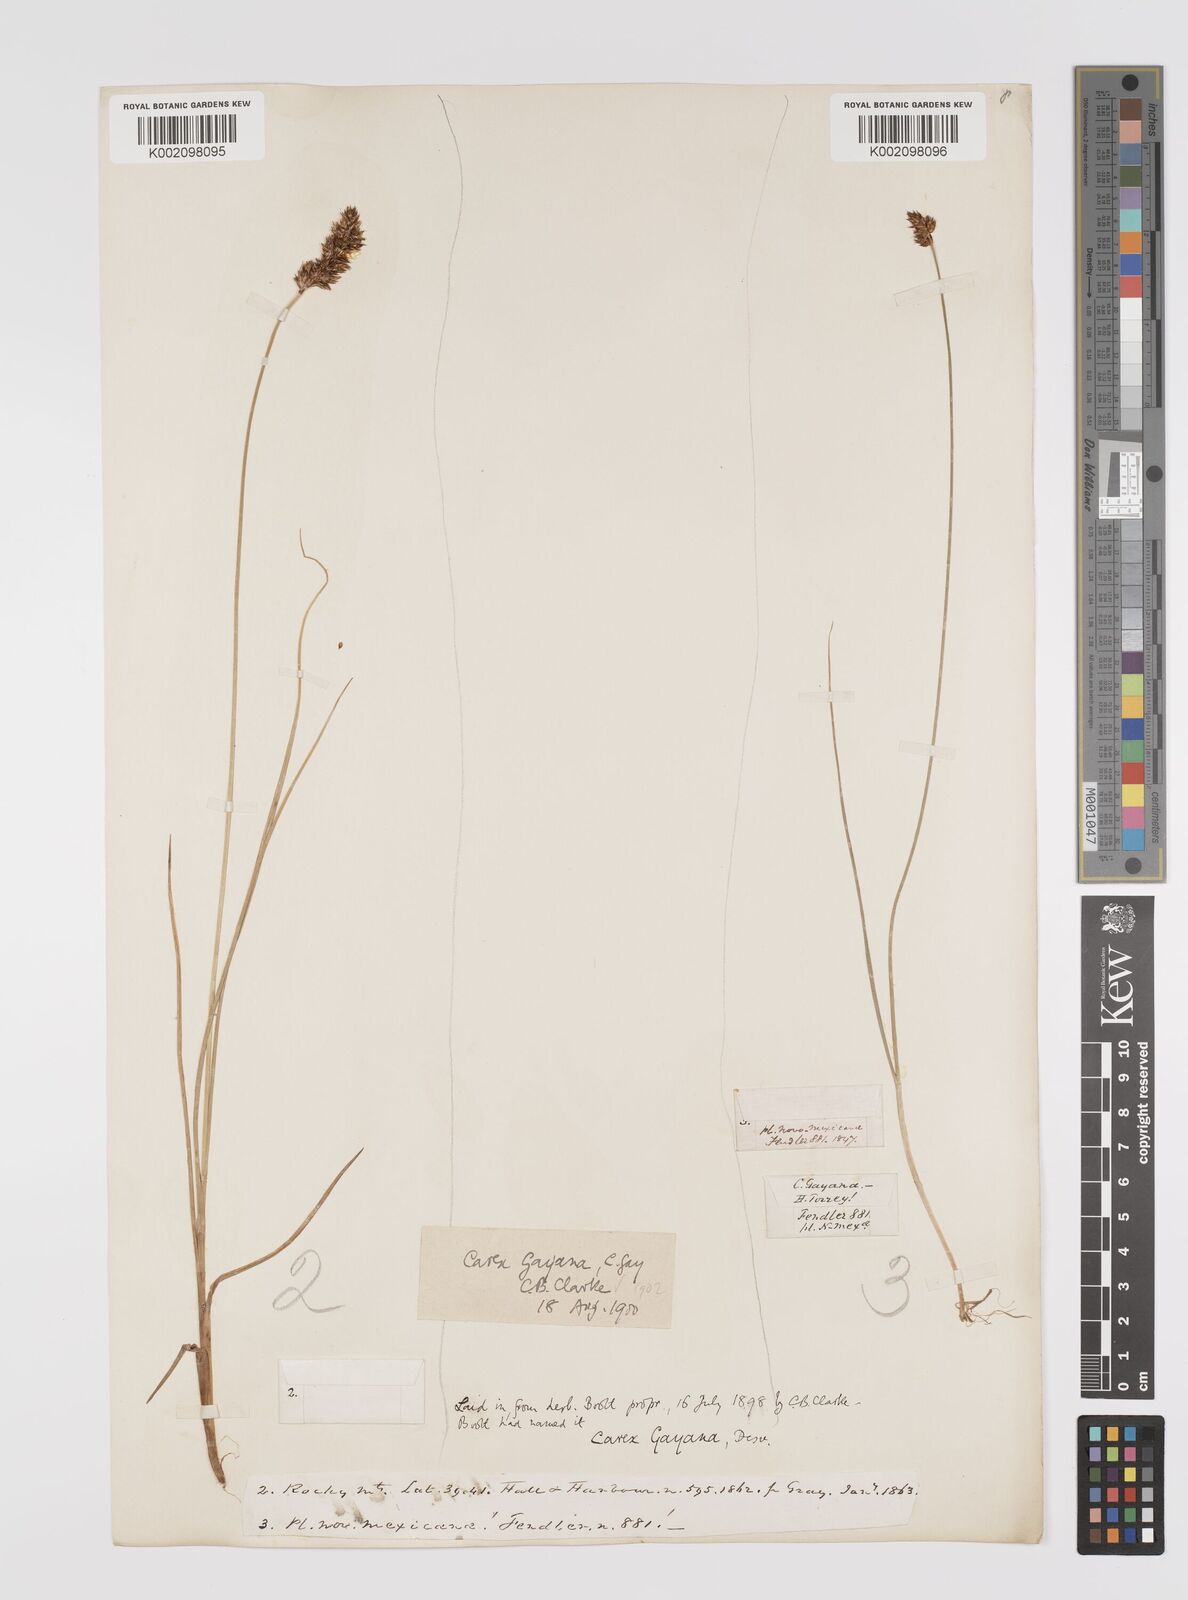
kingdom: Plantae
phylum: Tracheophyta
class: Liliopsida
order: Poales
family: Cyperaceae
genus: Carex
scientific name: Carex praegracilis
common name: Black creeper sedge
